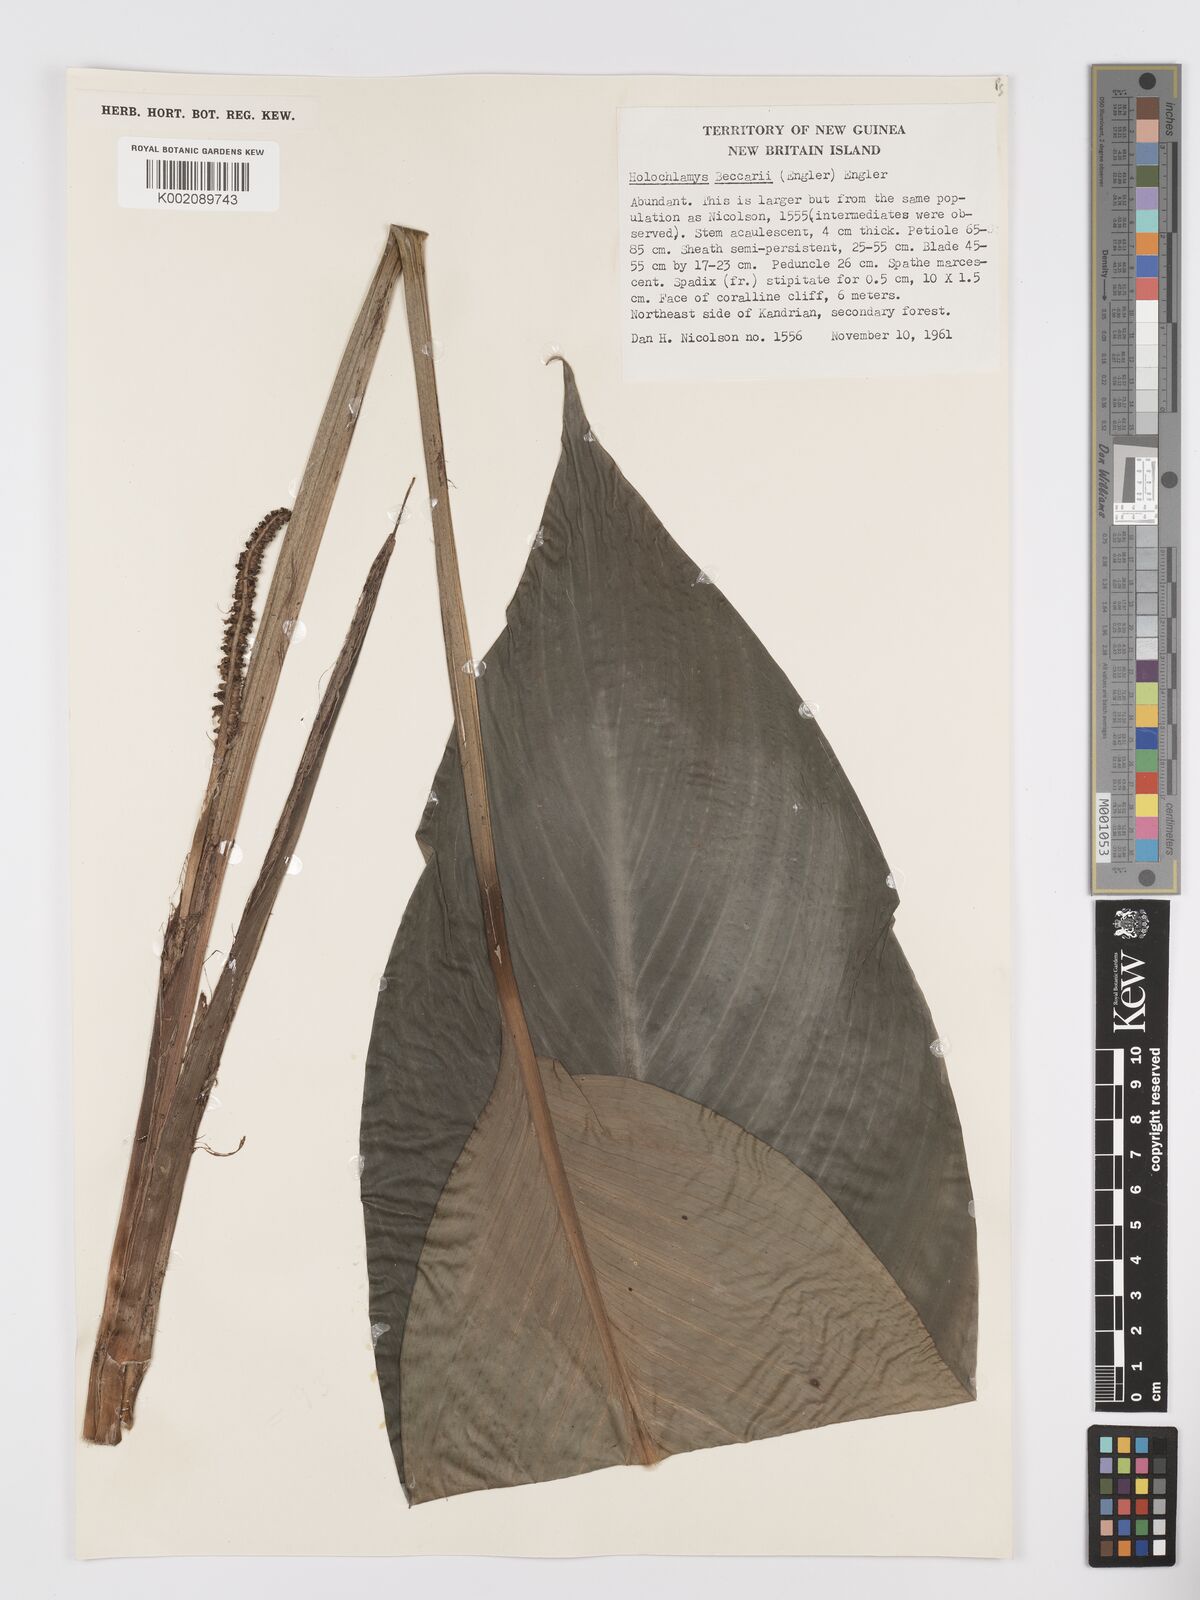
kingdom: Plantae
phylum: Tracheophyta
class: Liliopsida
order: Alismatales
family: Araceae
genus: Holochlamys
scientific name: Holochlamys beccarii
